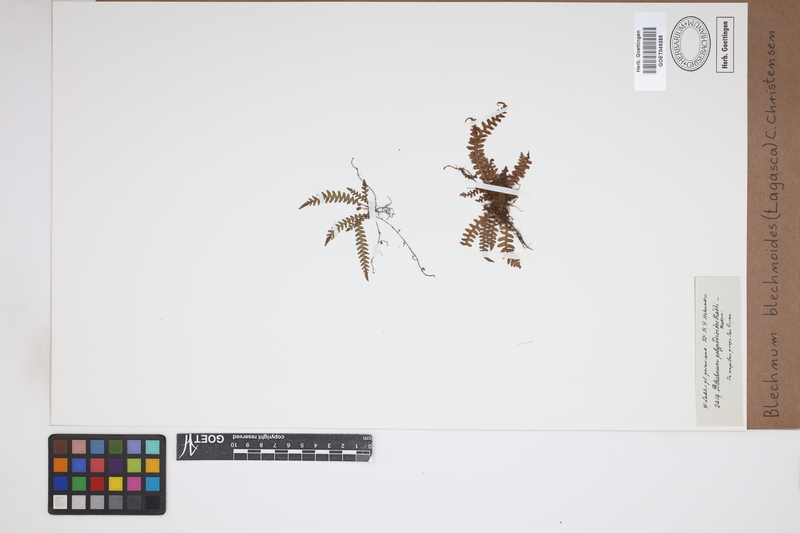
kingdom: Plantae
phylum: Tracheophyta
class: Polypodiopsida
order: Polypodiales
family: Blechnaceae
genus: Blechnum
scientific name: Blechnum polypodioides
